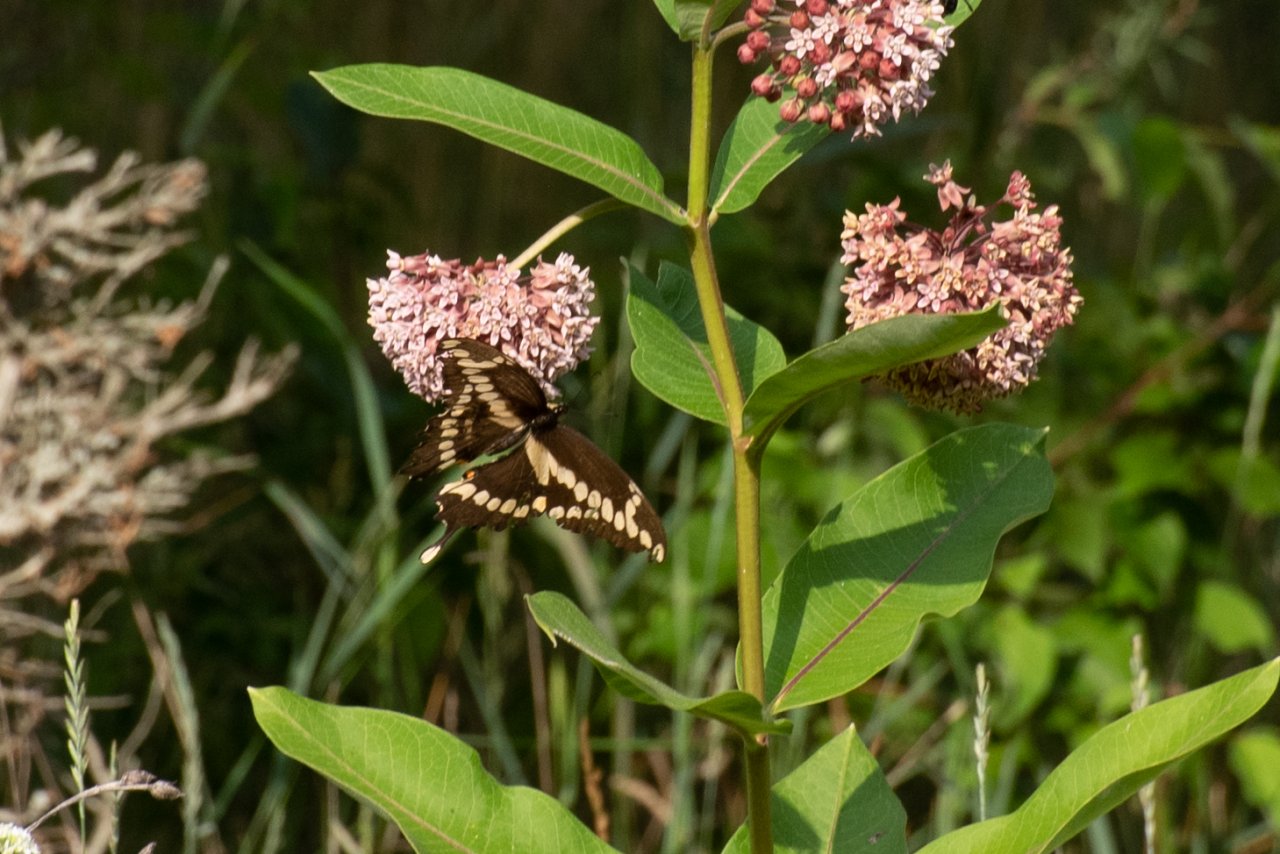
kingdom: Animalia
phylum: Arthropoda
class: Insecta
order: Lepidoptera
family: Papilionidae
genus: Papilio
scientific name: Papilio cresphontes
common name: Eastern Giant Swallowtail
